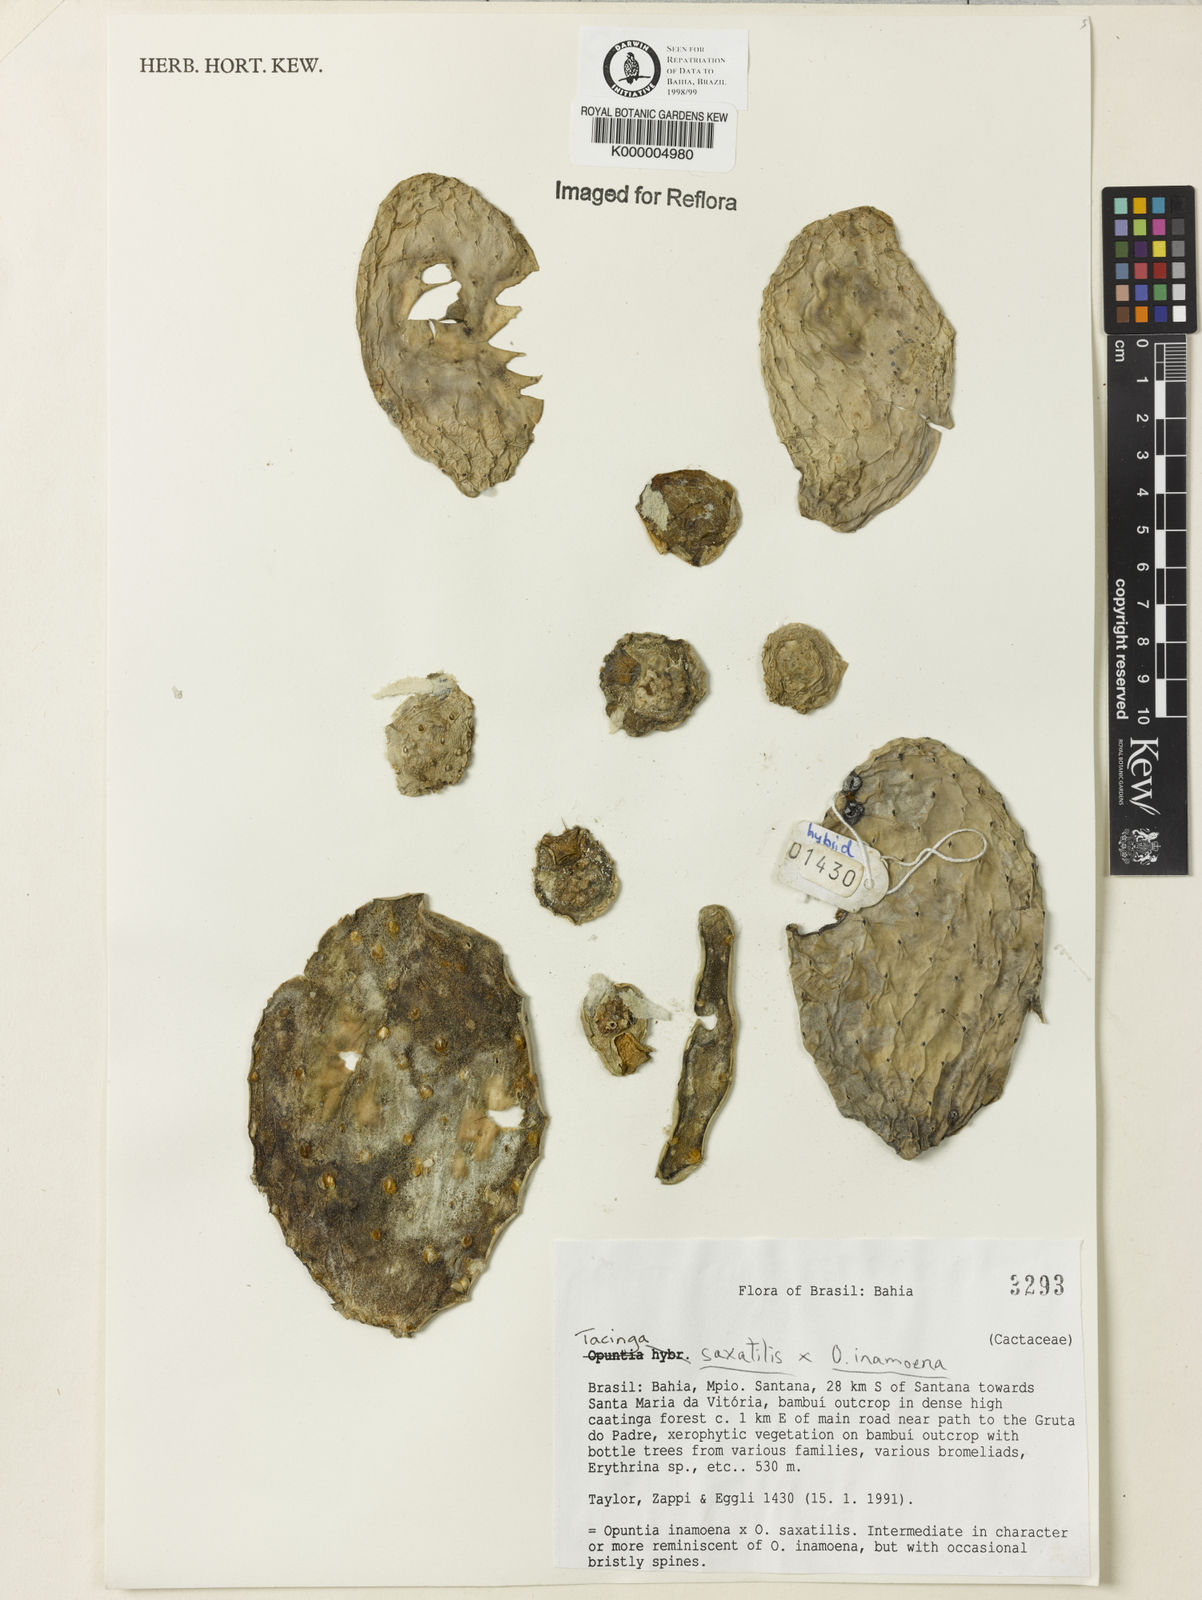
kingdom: Plantae
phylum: Tracheophyta
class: Magnoliopsida
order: Caryophyllales
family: Cactaceae
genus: Tacinga
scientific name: Tacinga saxatilis
